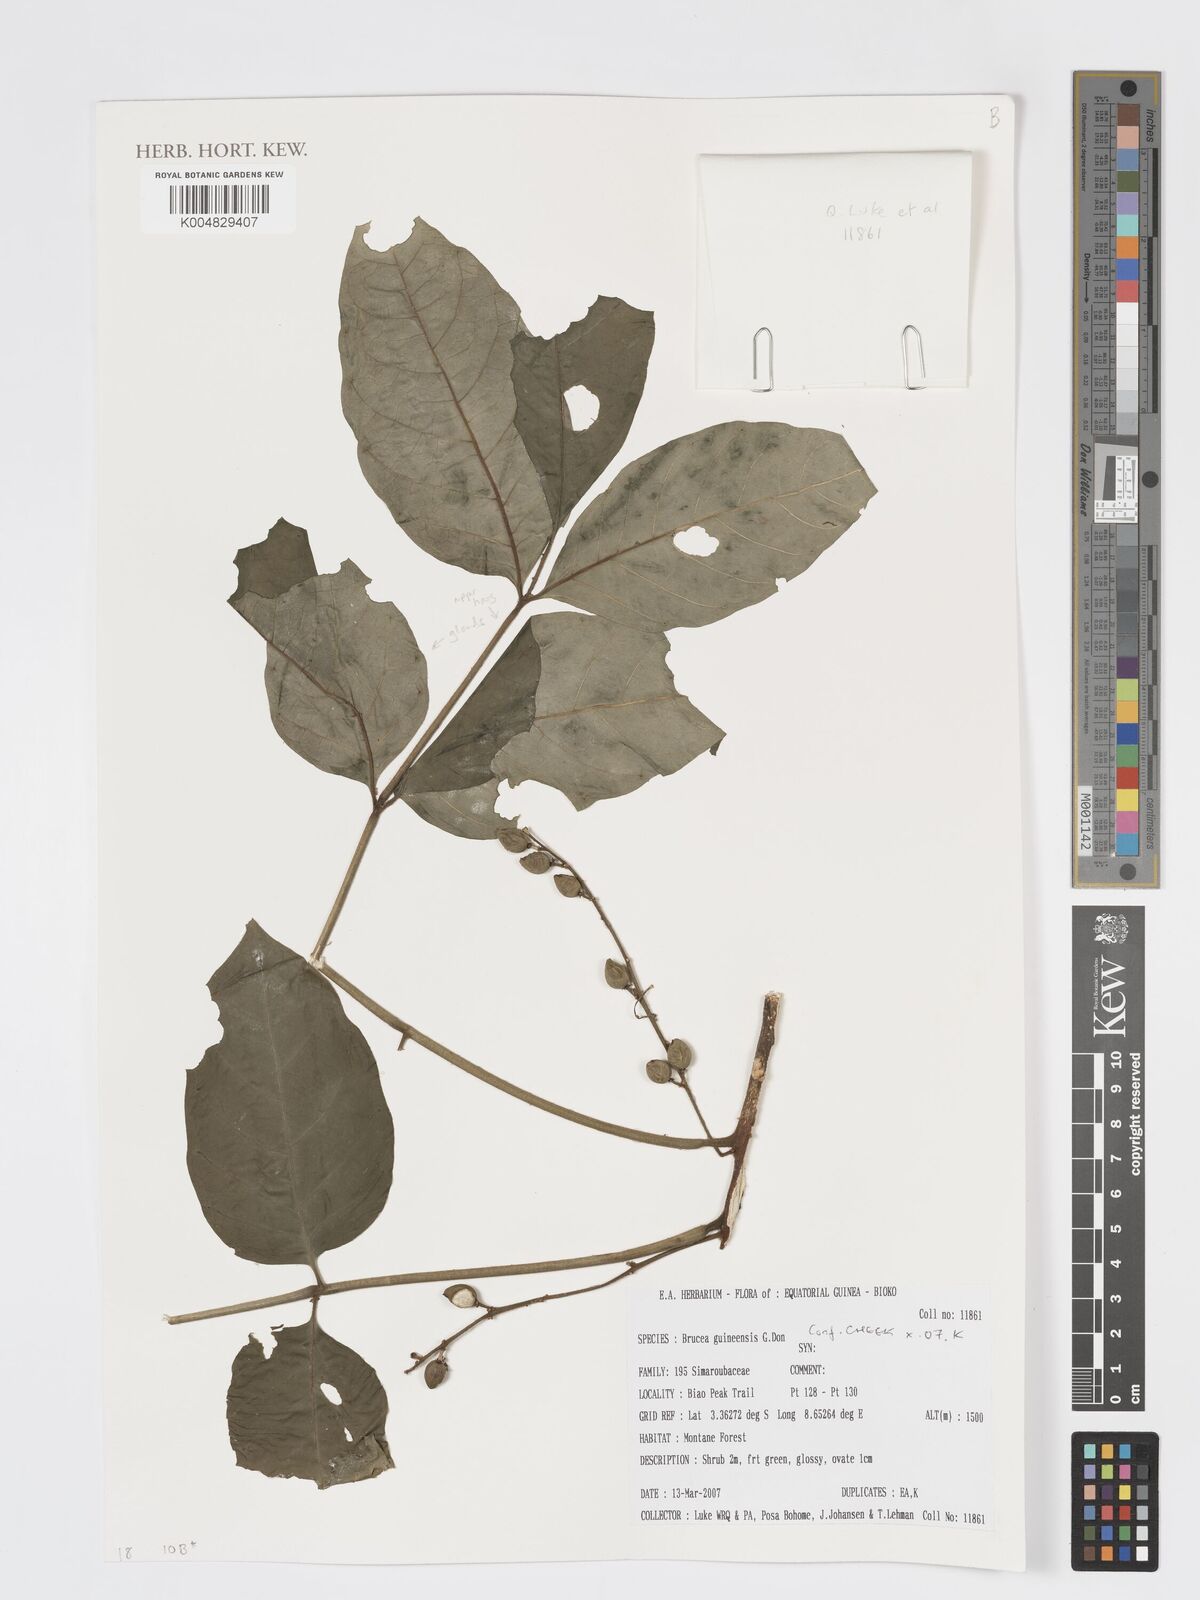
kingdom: Plantae
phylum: Tracheophyta
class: Magnoliopsida
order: Sapindales
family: Anacardiaceae
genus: Trichoscypha
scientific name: Trichoscypha smythei
